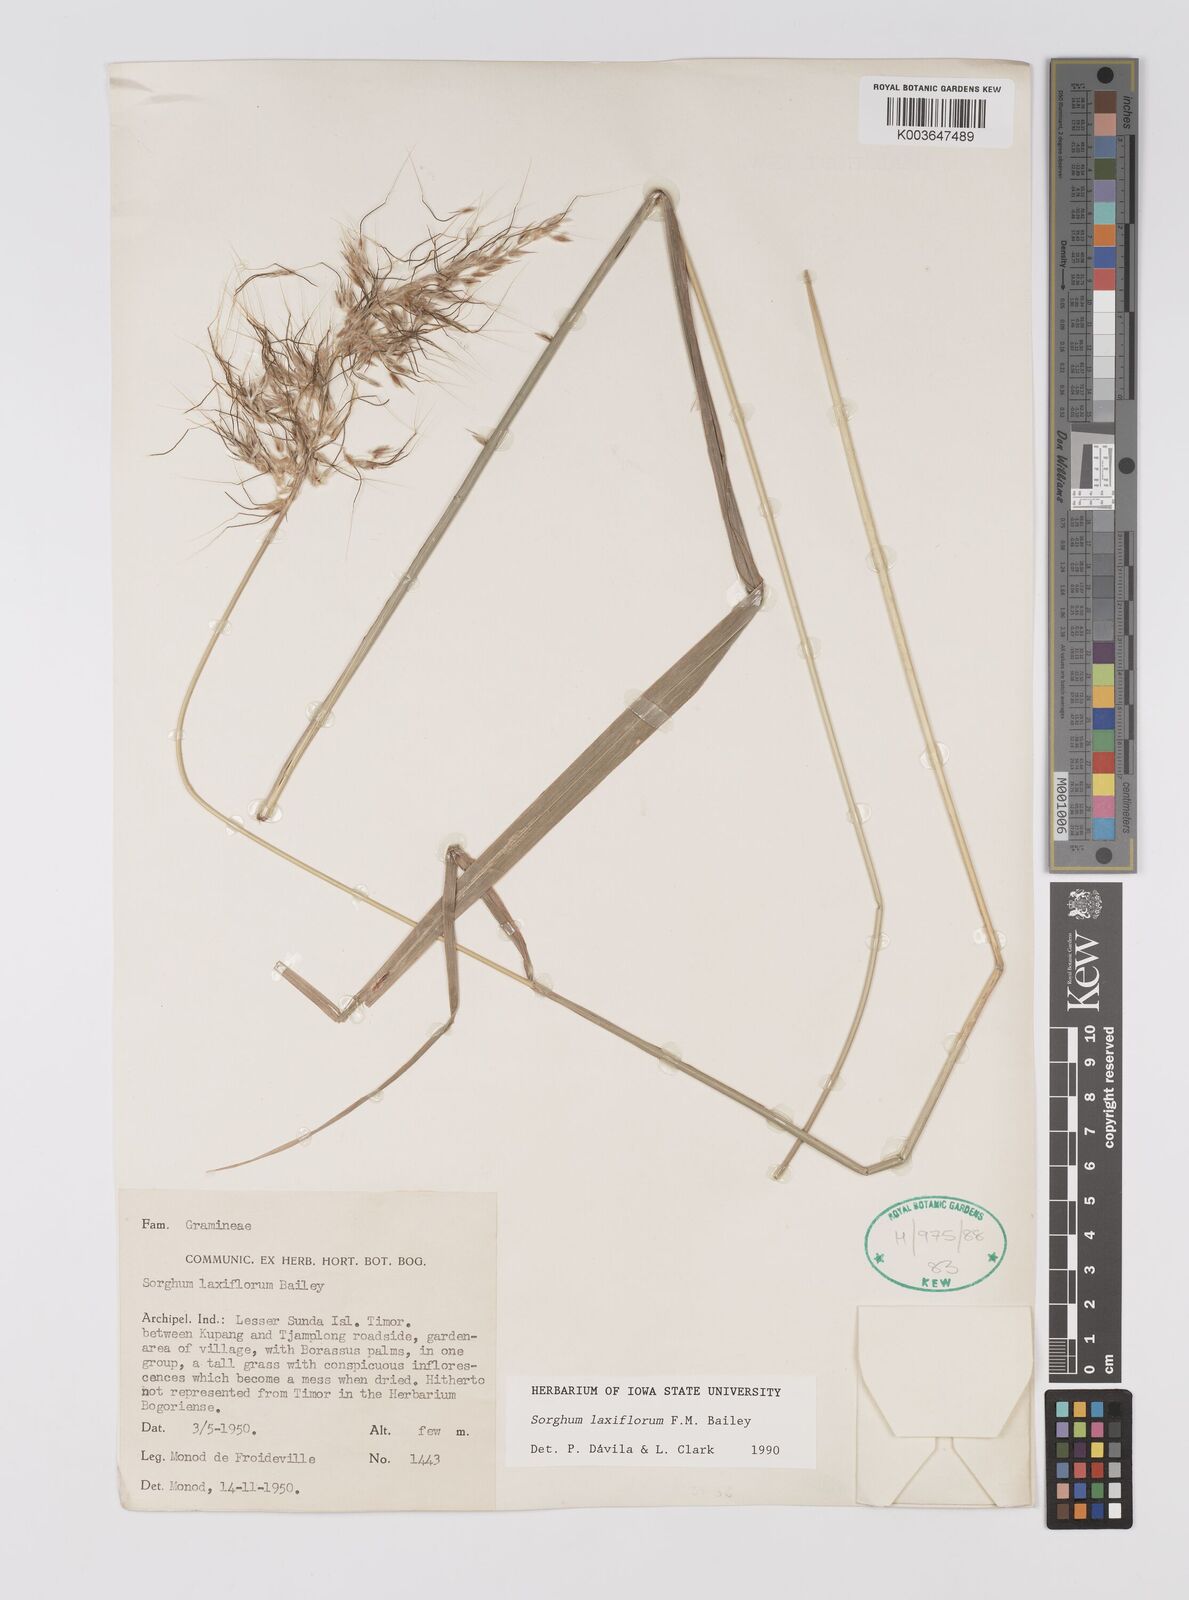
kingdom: Plantae
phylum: Tracheophyta
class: Liliopsida
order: Poales
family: Poaceae
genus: Sorghum
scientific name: Sorghum laxiflorum
